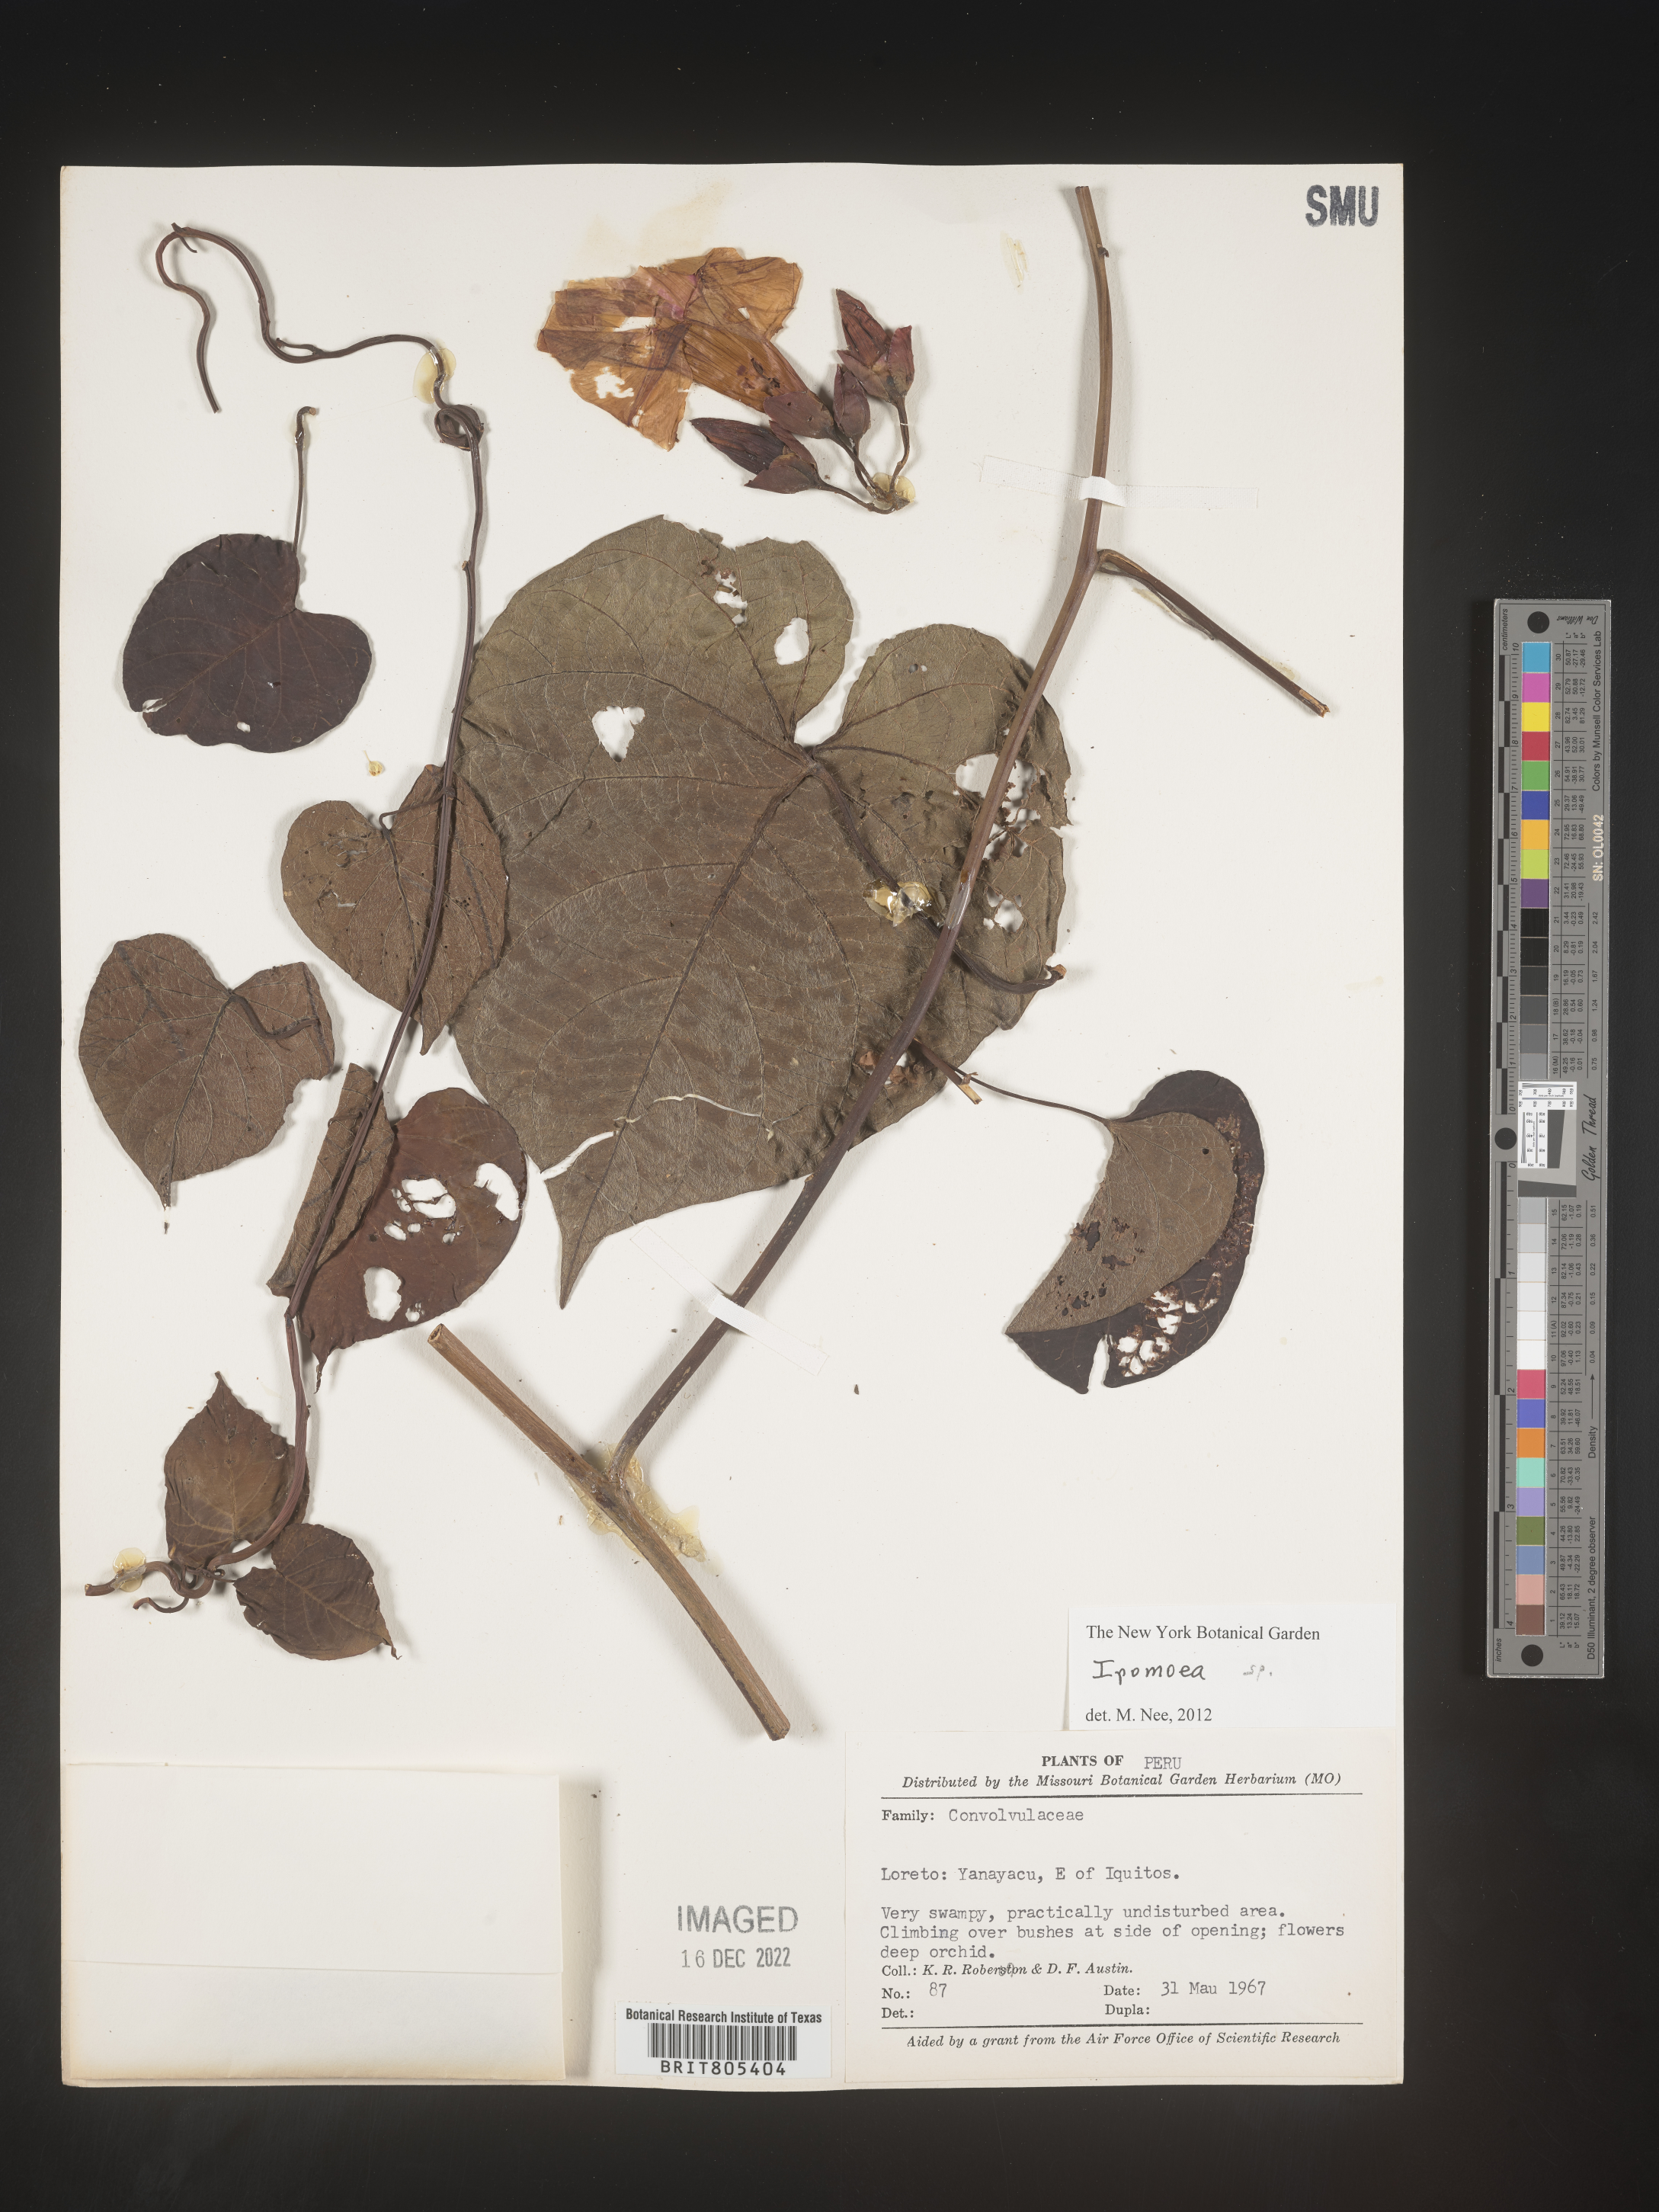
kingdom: Plantae
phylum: Tracheophyta
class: Magnoliopsida
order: Solanales
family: Convolvulaceae
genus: Ipomoea
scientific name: Ipomoea
